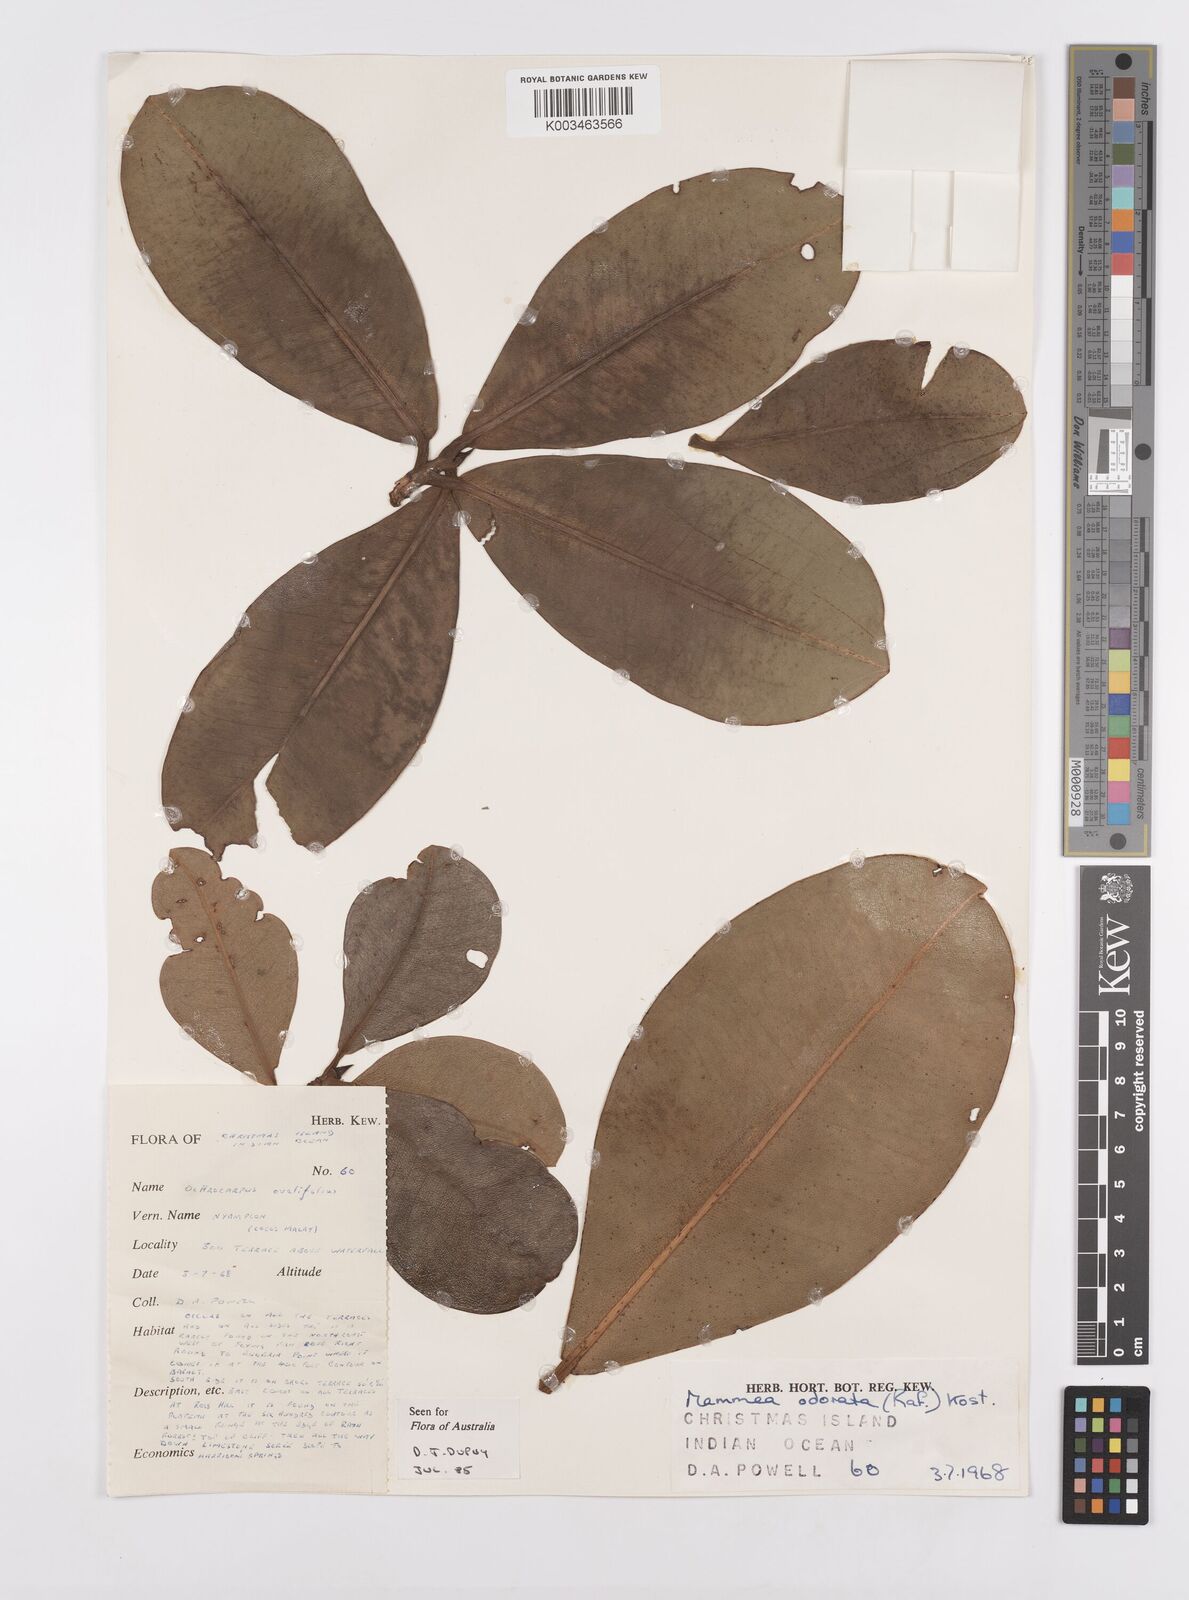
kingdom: Plantae
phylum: Tracheophyta
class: Magnoliopsida
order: Malpighiales
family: Calophyllaceae
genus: Mammea
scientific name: Mammea odorata
